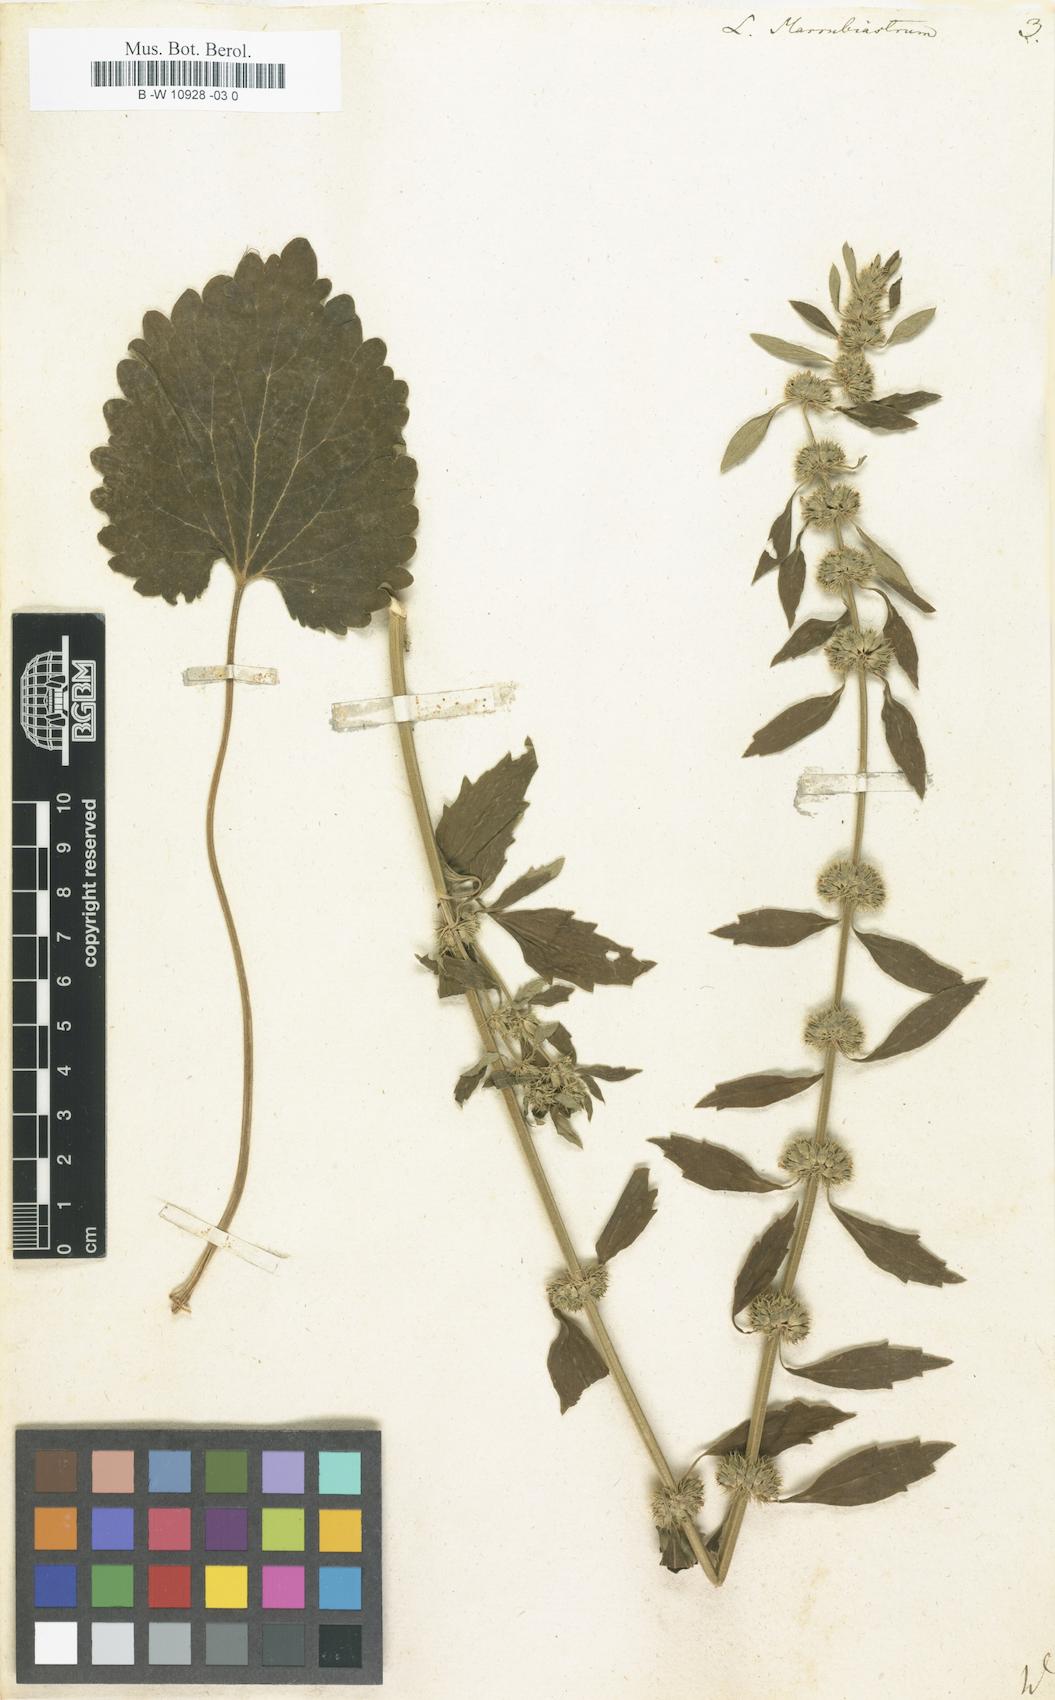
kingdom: Plantae
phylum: Tracheophyta
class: Magnoliopsida
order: Lamiales
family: Lamiaceae
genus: Leonurus
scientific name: Leonurus marrubiastrum
